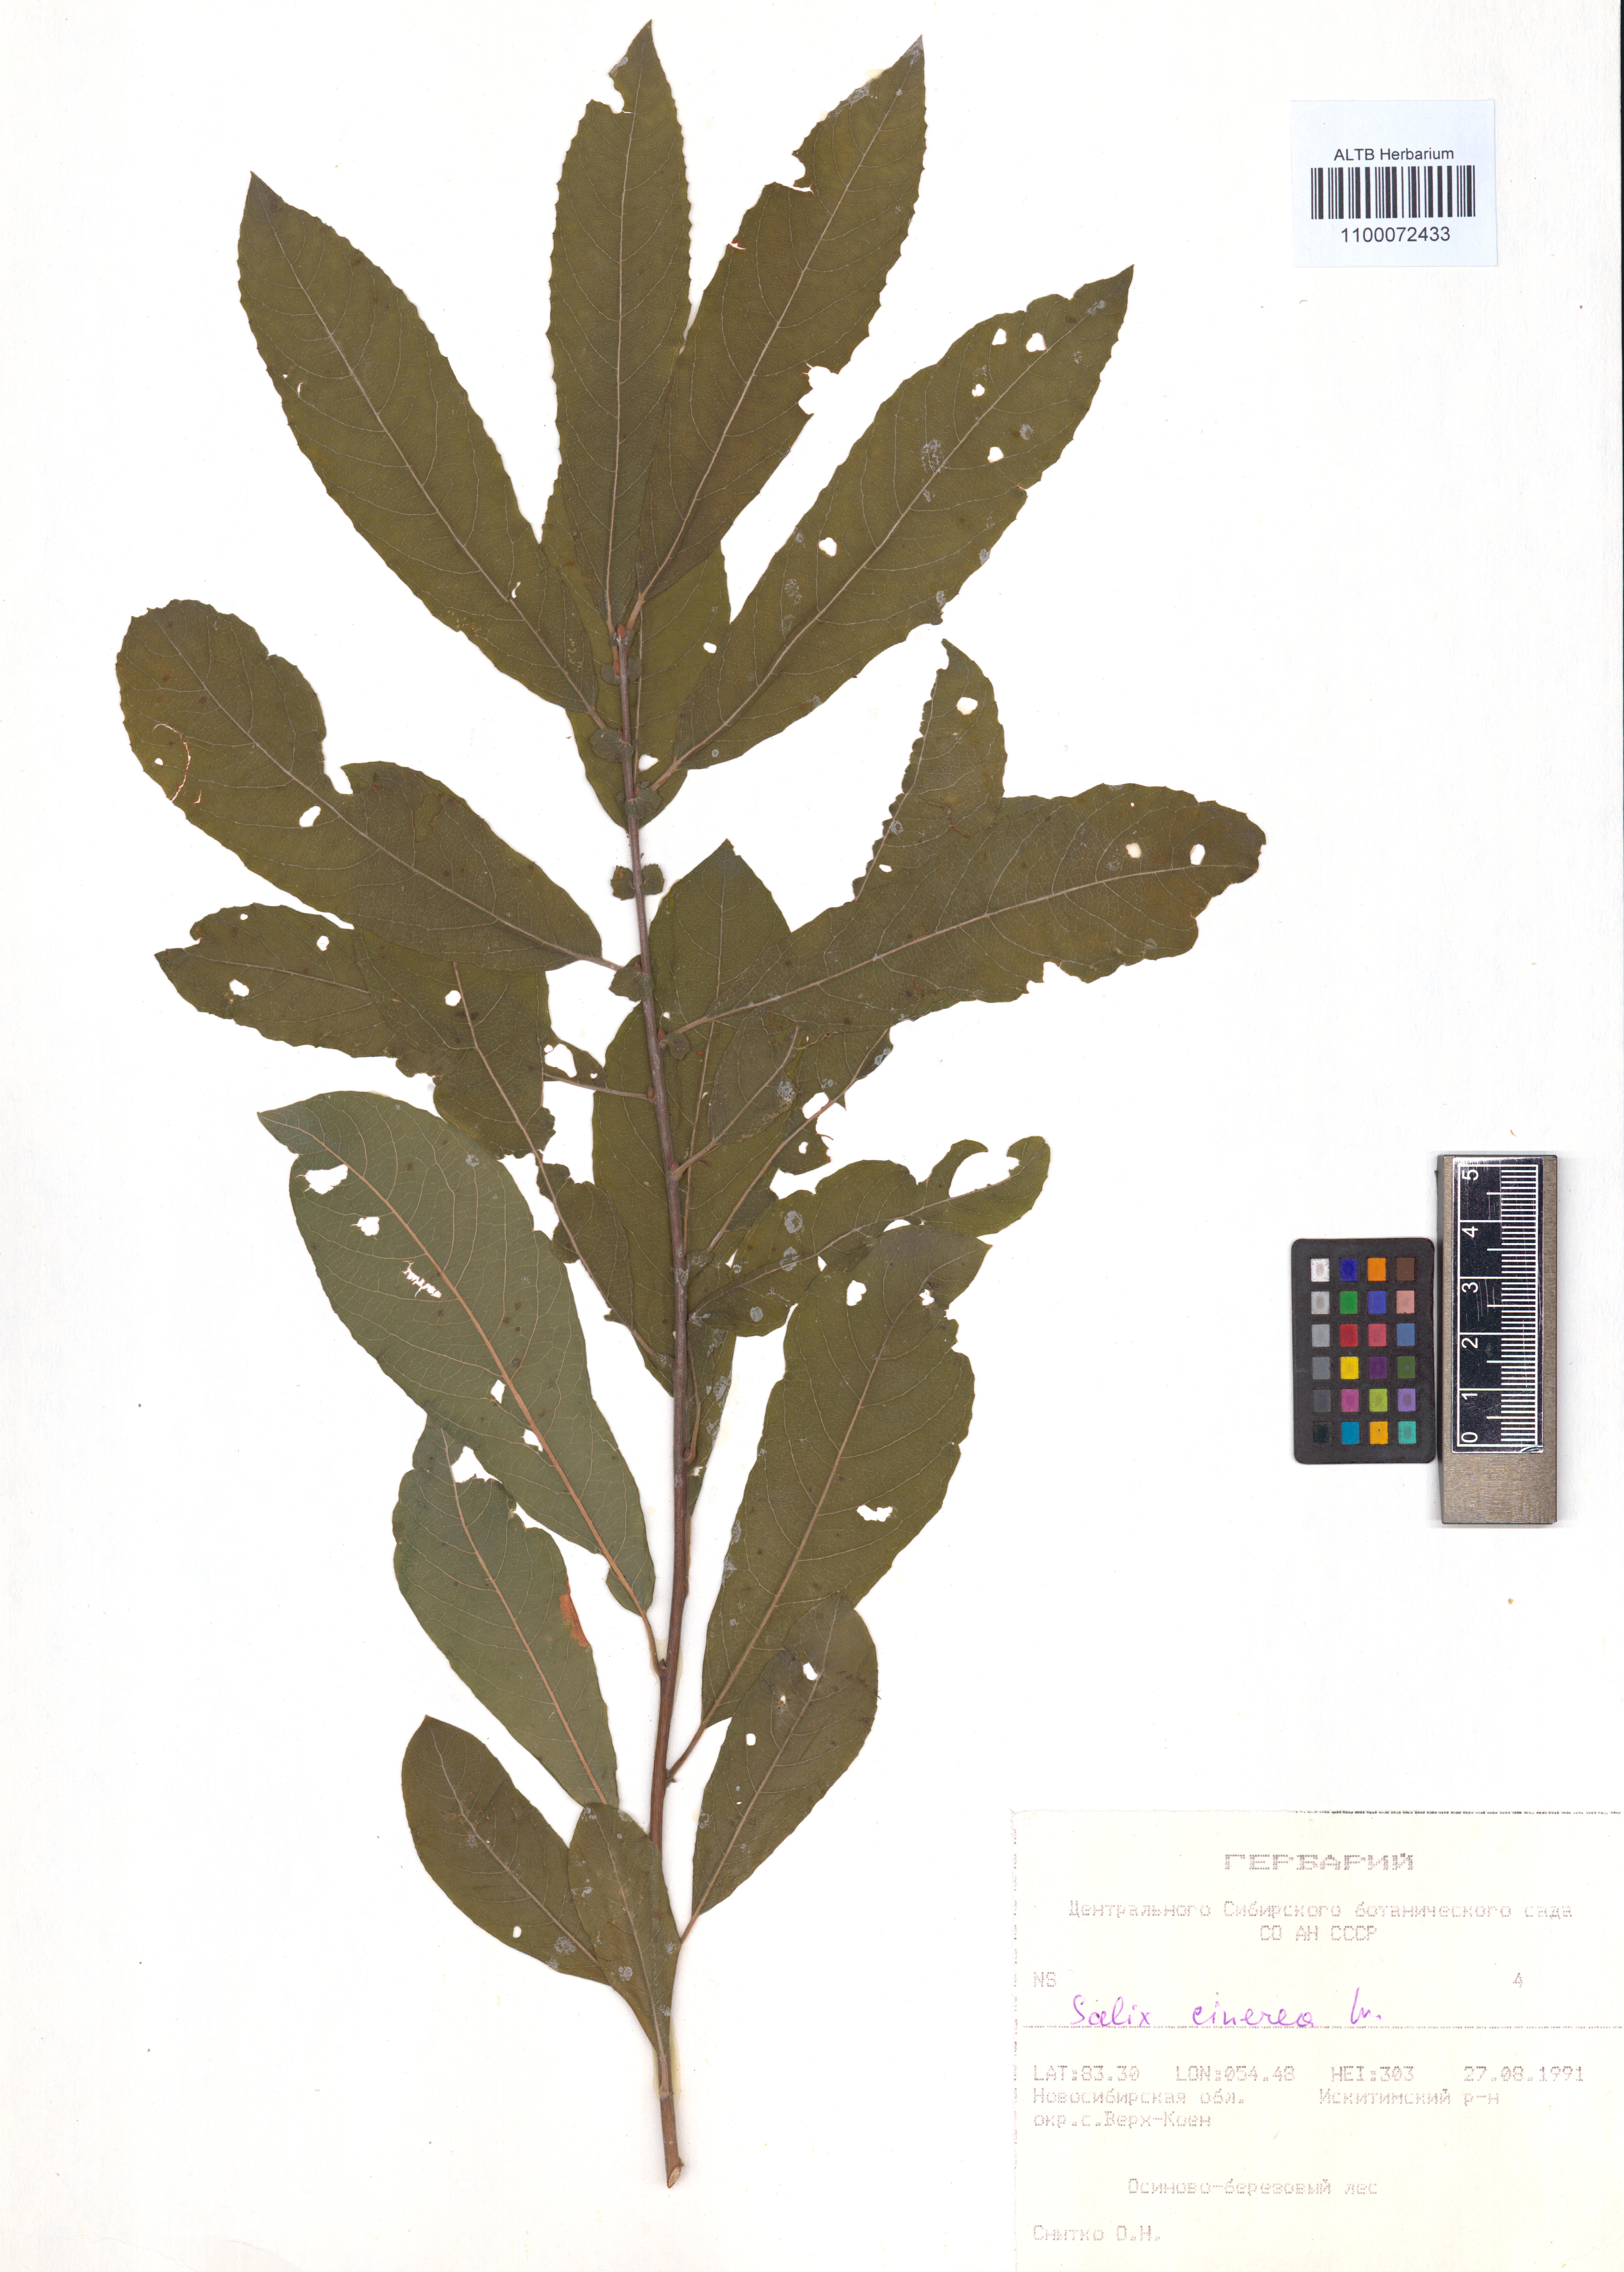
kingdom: Plantae
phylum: Tracheophyta
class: Magnoliopsida
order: Malpighiales
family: Salicaceae
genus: Salix
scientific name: Salix cinerea
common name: Common sallow
